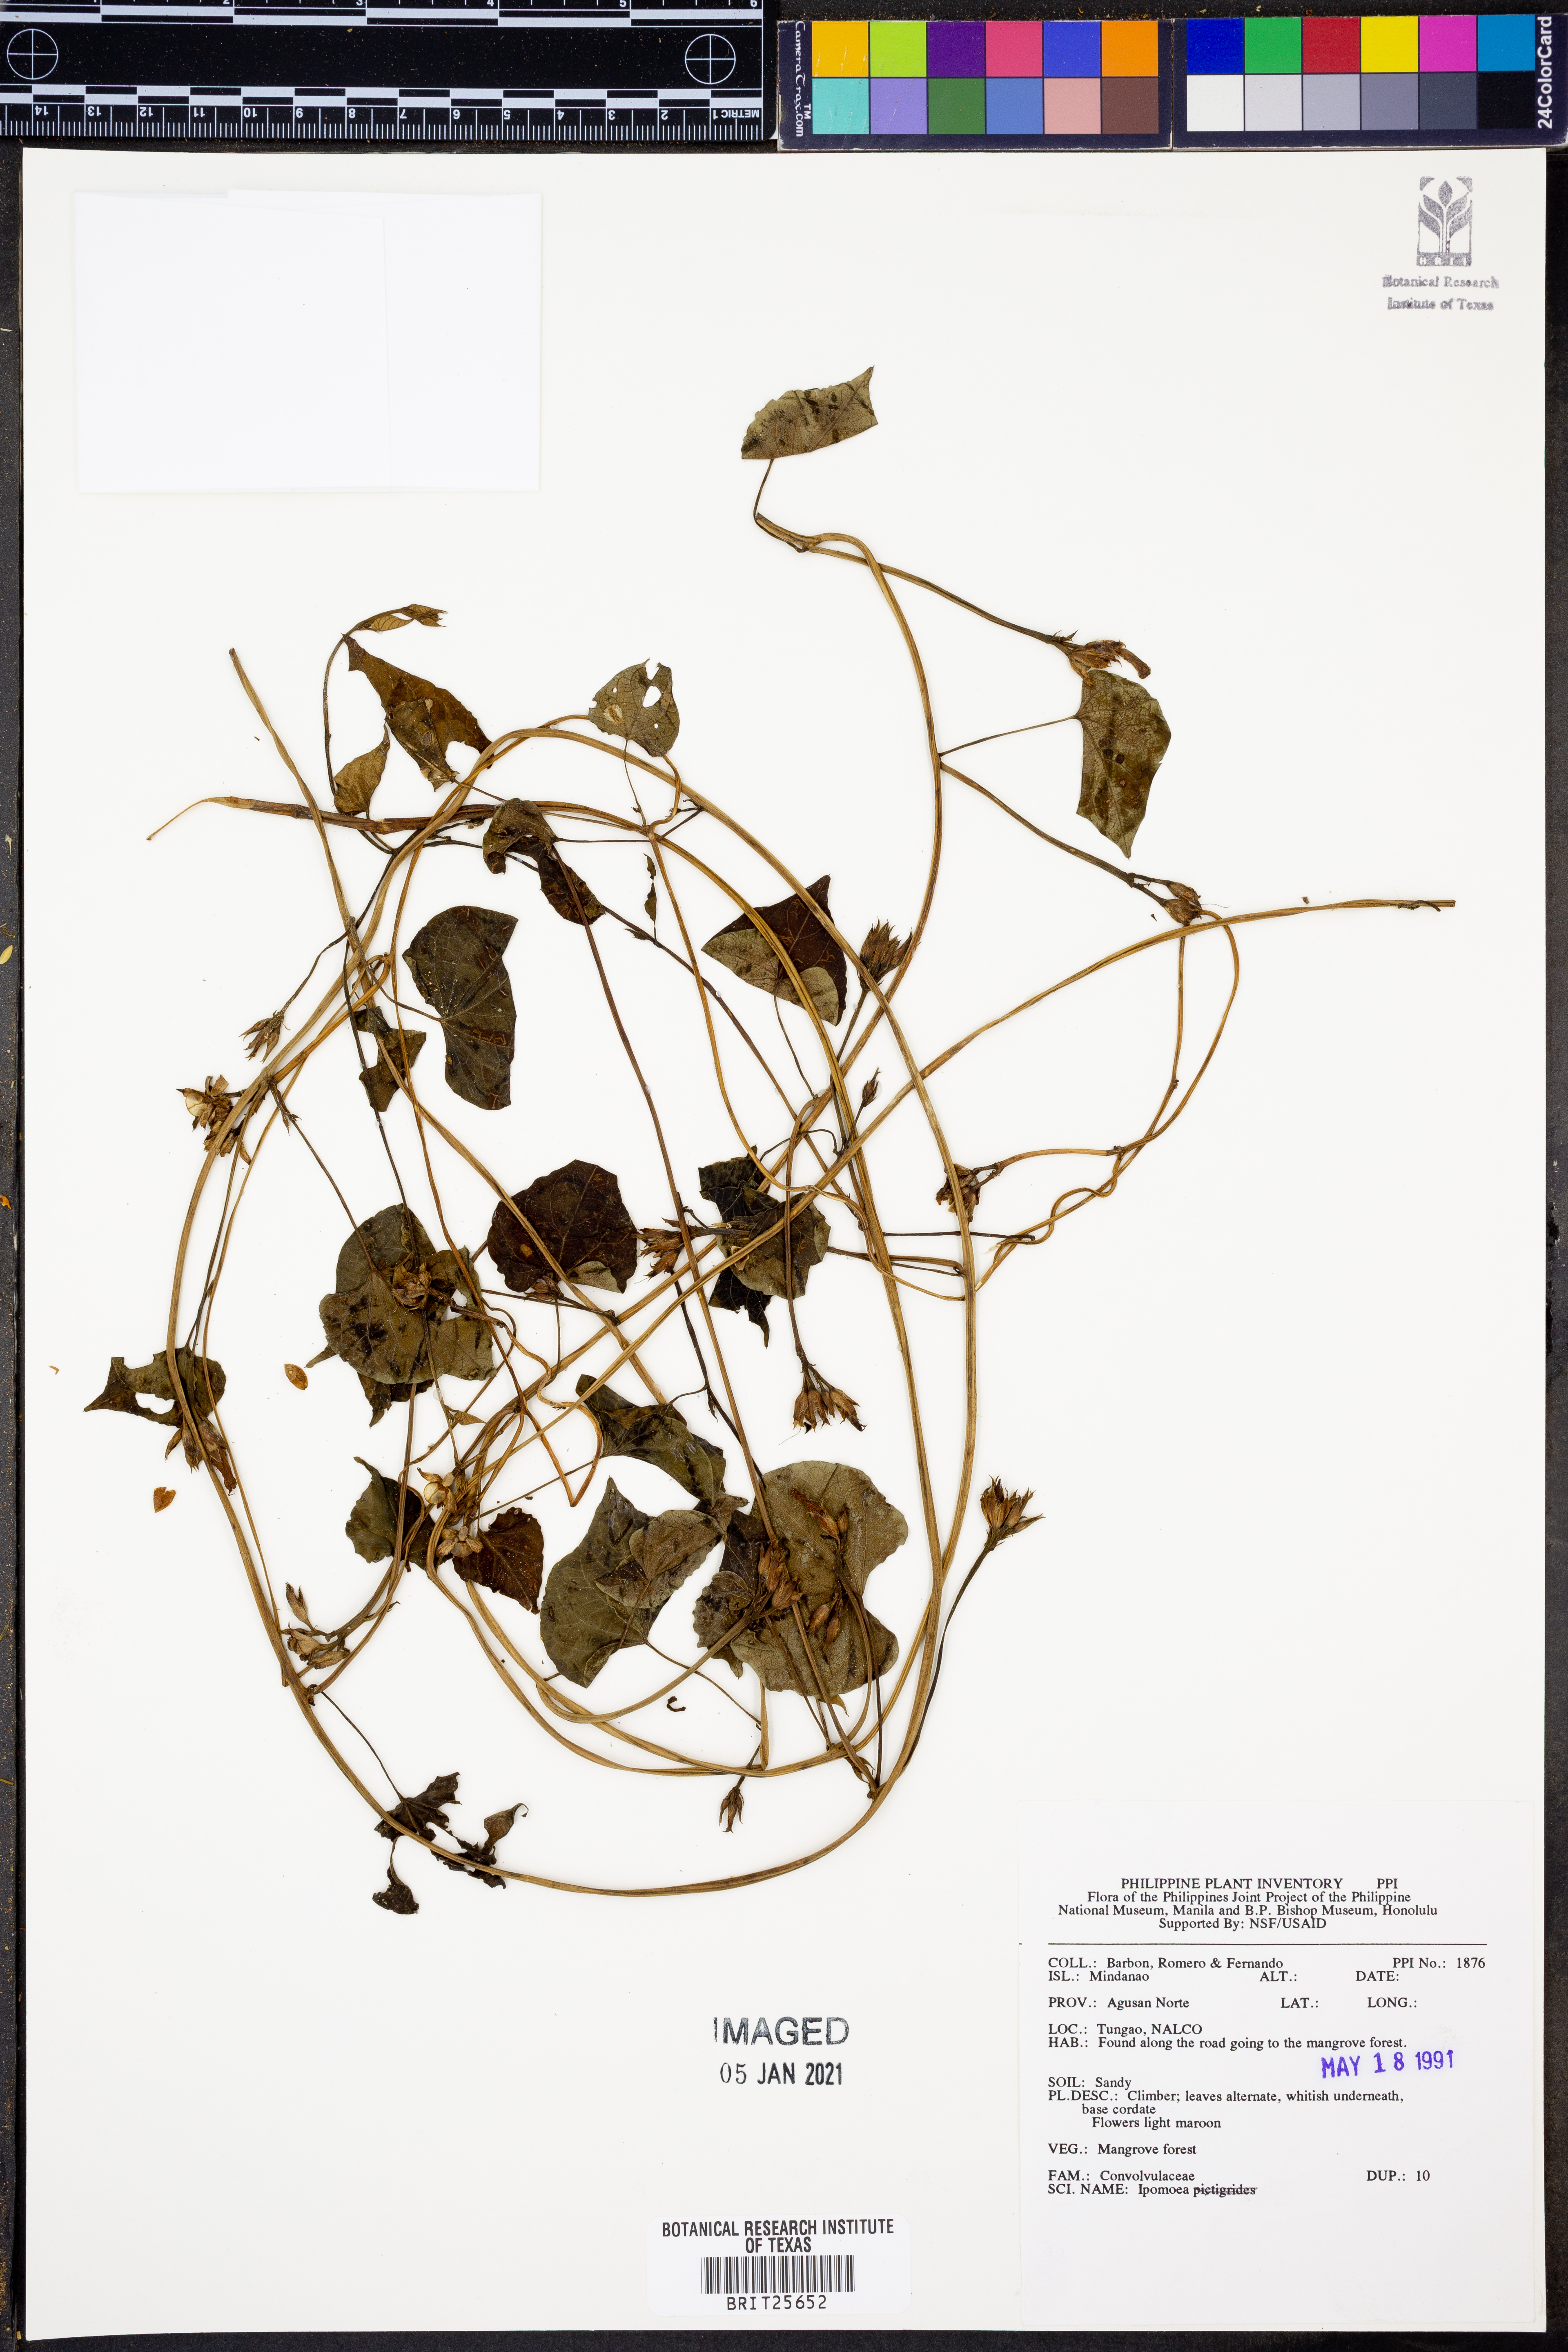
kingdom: Plantae
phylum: Tracheophyta
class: Magnoliopsida
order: Solanales
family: Convolvulaceae
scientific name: Convolvulaceae
